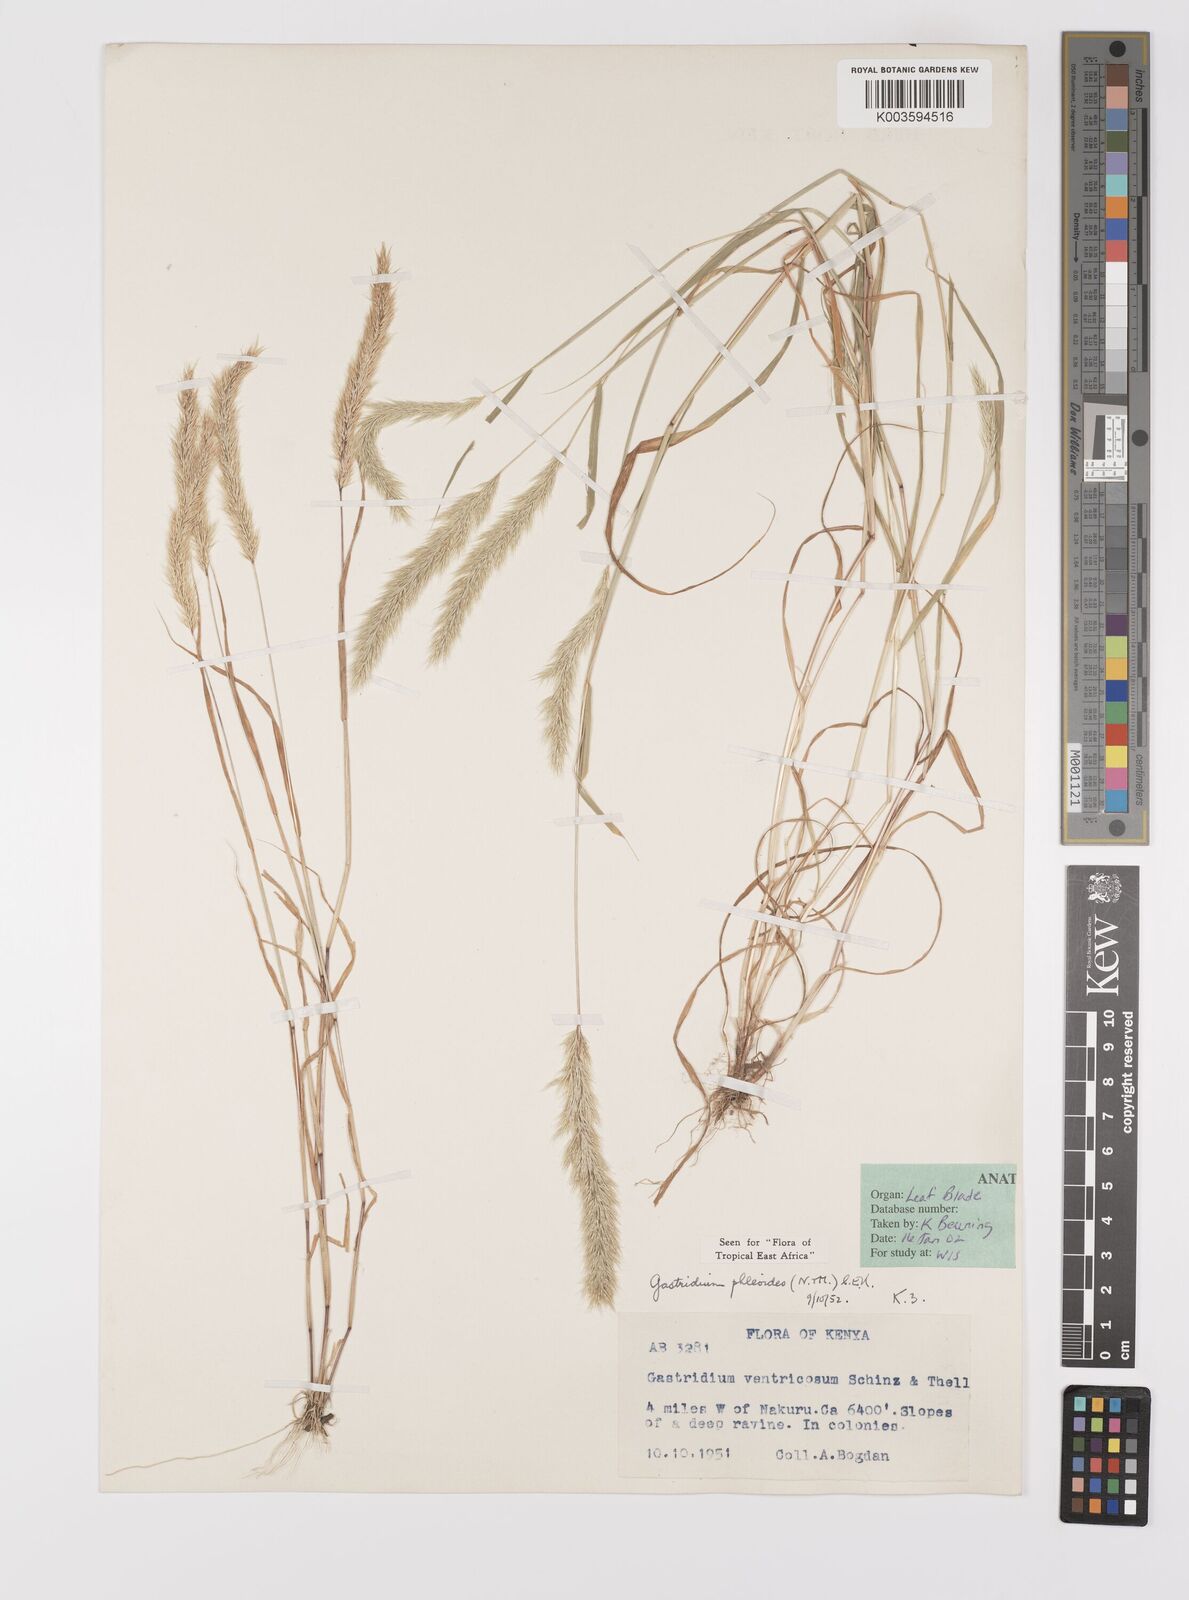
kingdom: Plantae
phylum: Tracheophyta
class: Liliopsida
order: Poales
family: Poaceae
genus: Gastridium
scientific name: Gastridium phleoides
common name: Nit grass
